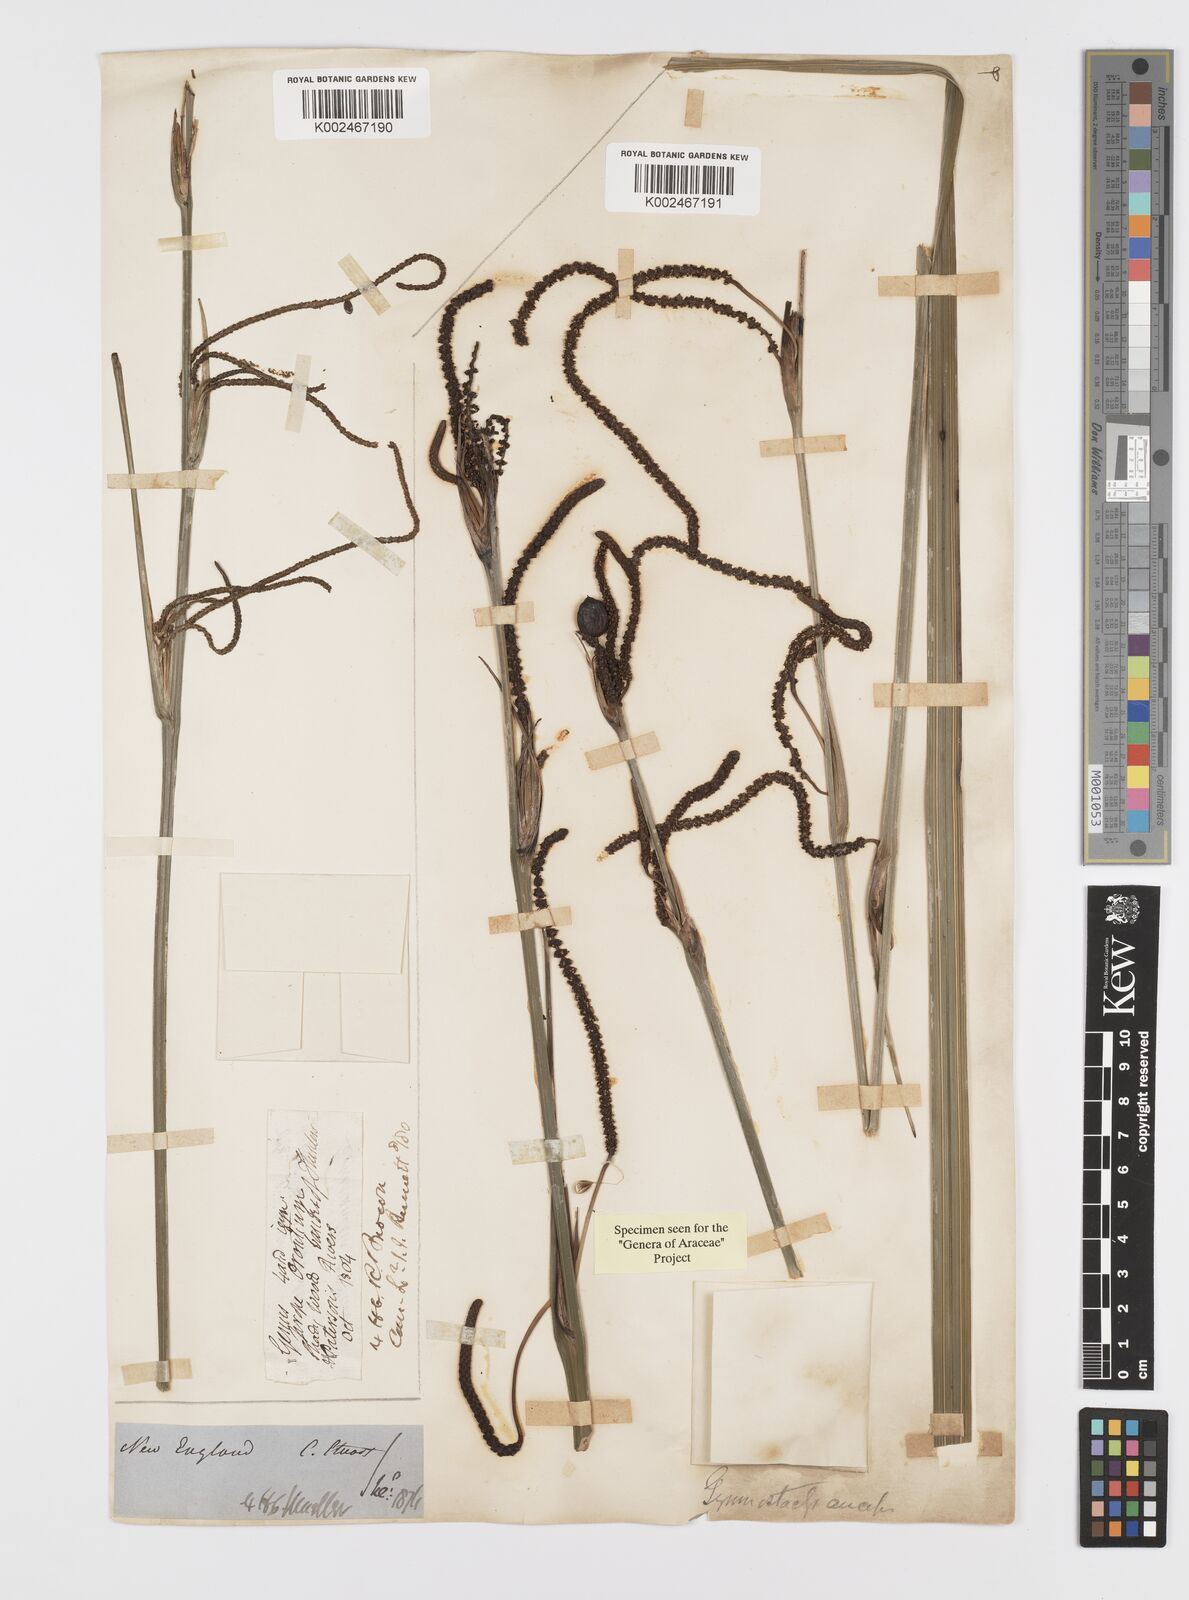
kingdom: Plantae
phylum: Tracheophyta
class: Liliopsida
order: Alismatales
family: Araceae
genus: Gymnostachys
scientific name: Gymnostachys anceps
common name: Settler's-flax
